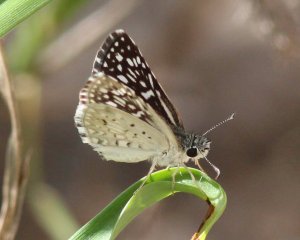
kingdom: Animalia
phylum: Arthropoda
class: Insecta
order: Lepidoptera
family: Hesperiidae
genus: Pyrgus
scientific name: Pyrgus oileus
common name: Desert Checkered-Skipper
